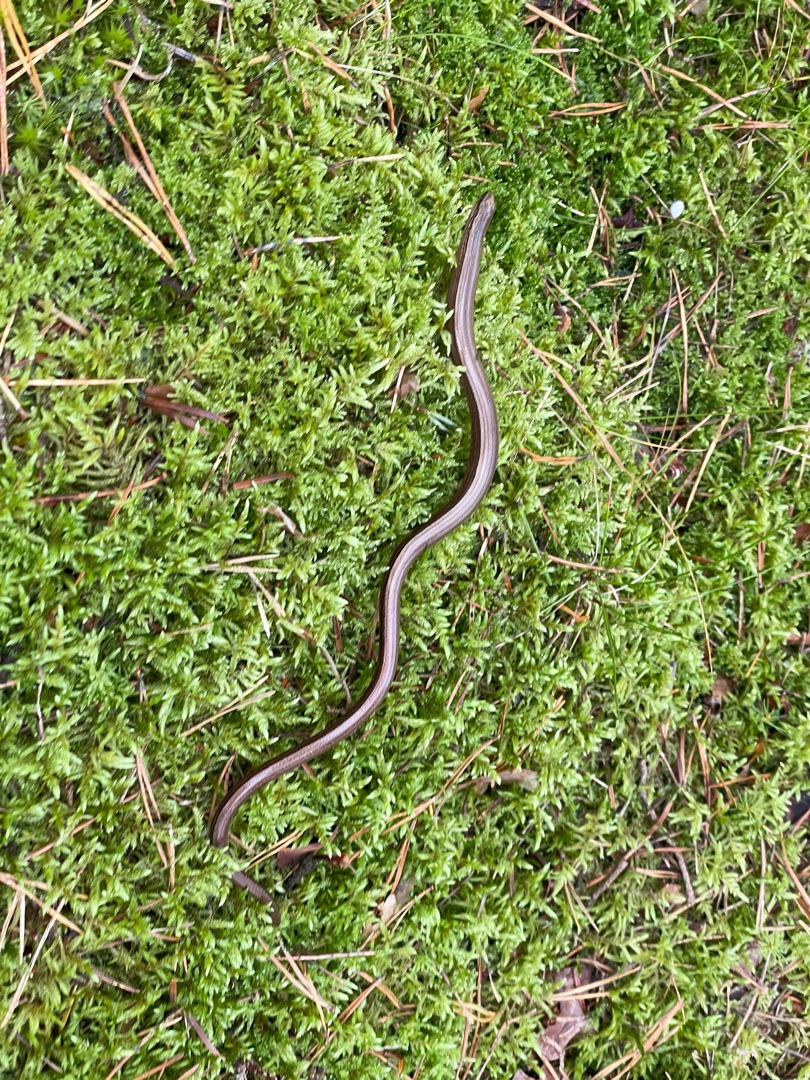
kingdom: Animalia
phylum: Chordata
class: Squamata
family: Anguidae
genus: Anguis
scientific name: Anguis fragilis
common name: Stålorm
